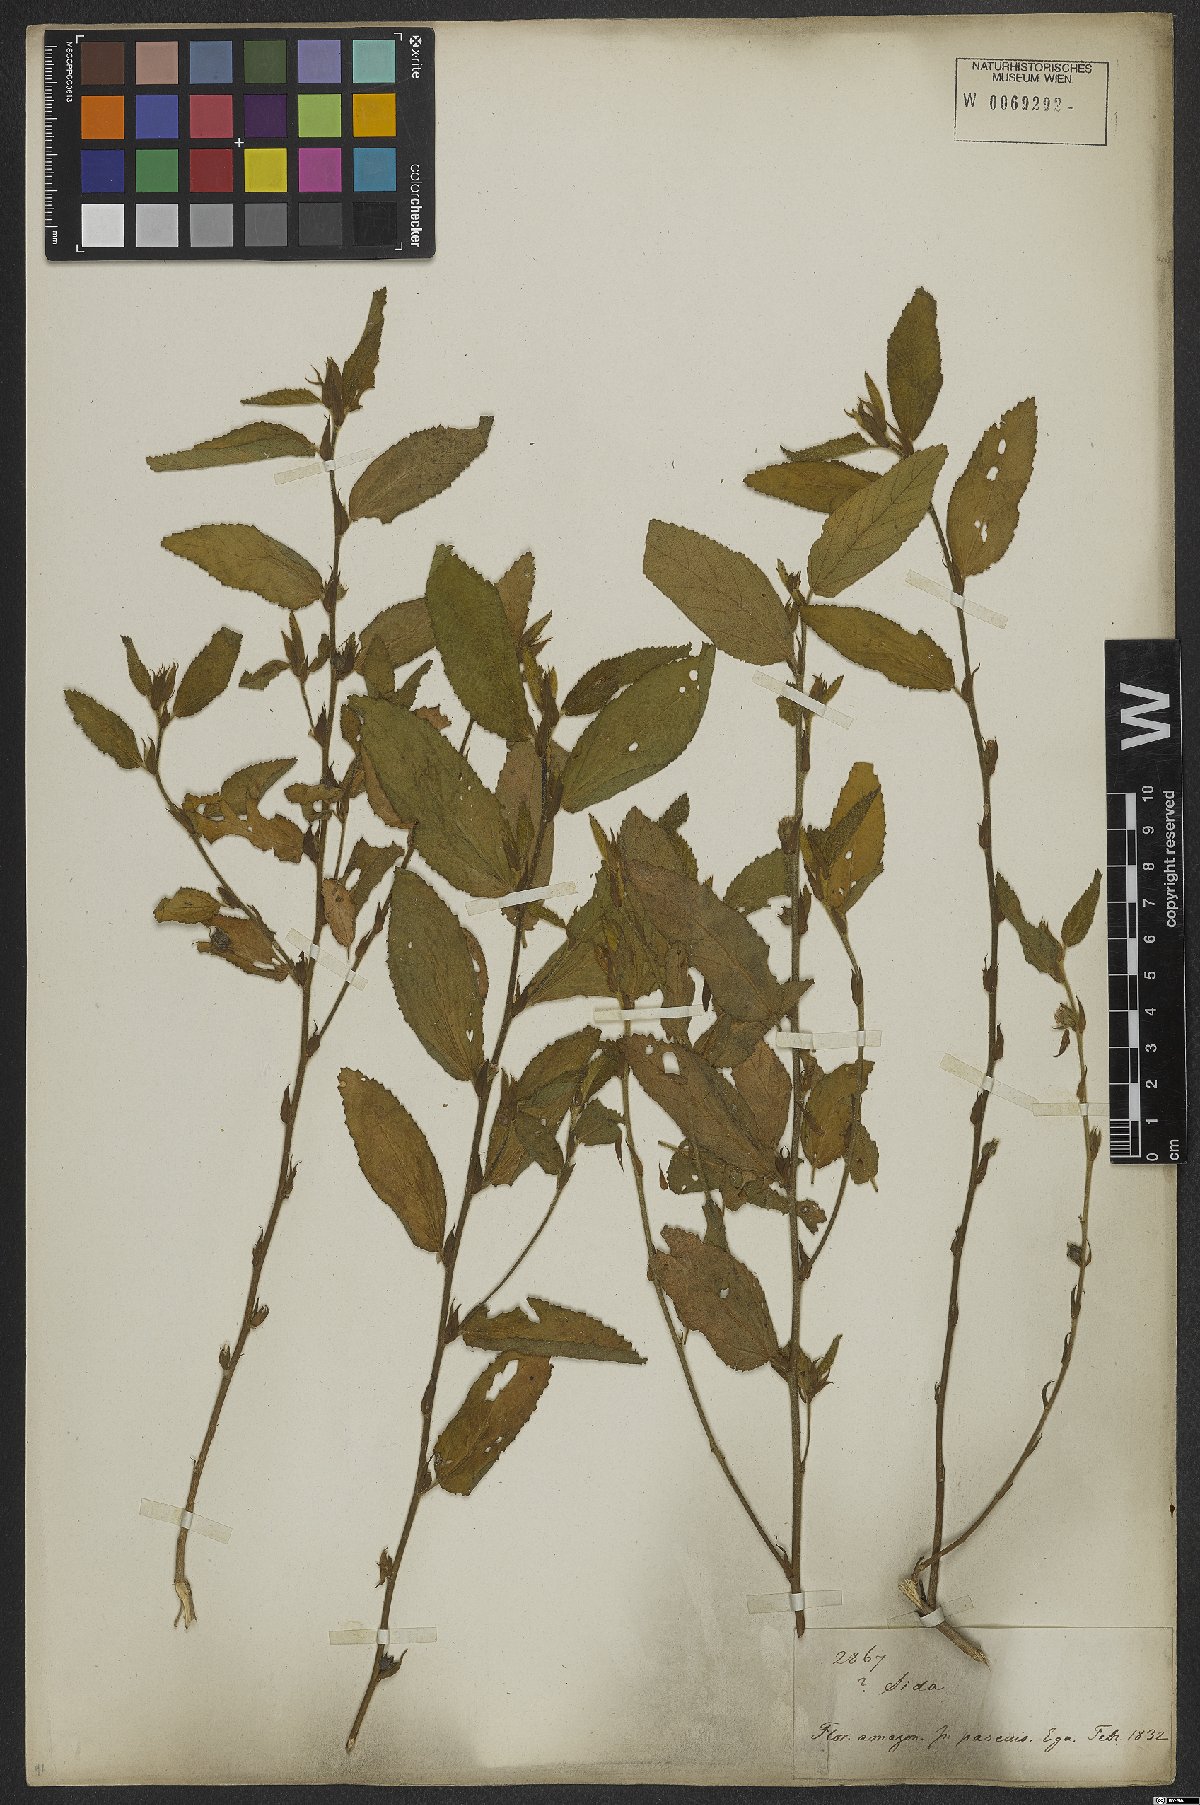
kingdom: Plantae
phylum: Tracheophyta
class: Magnoliopsida
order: Malvales
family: Malvaceae
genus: Sida
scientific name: Sida glomerata
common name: Clustered fanpetals
